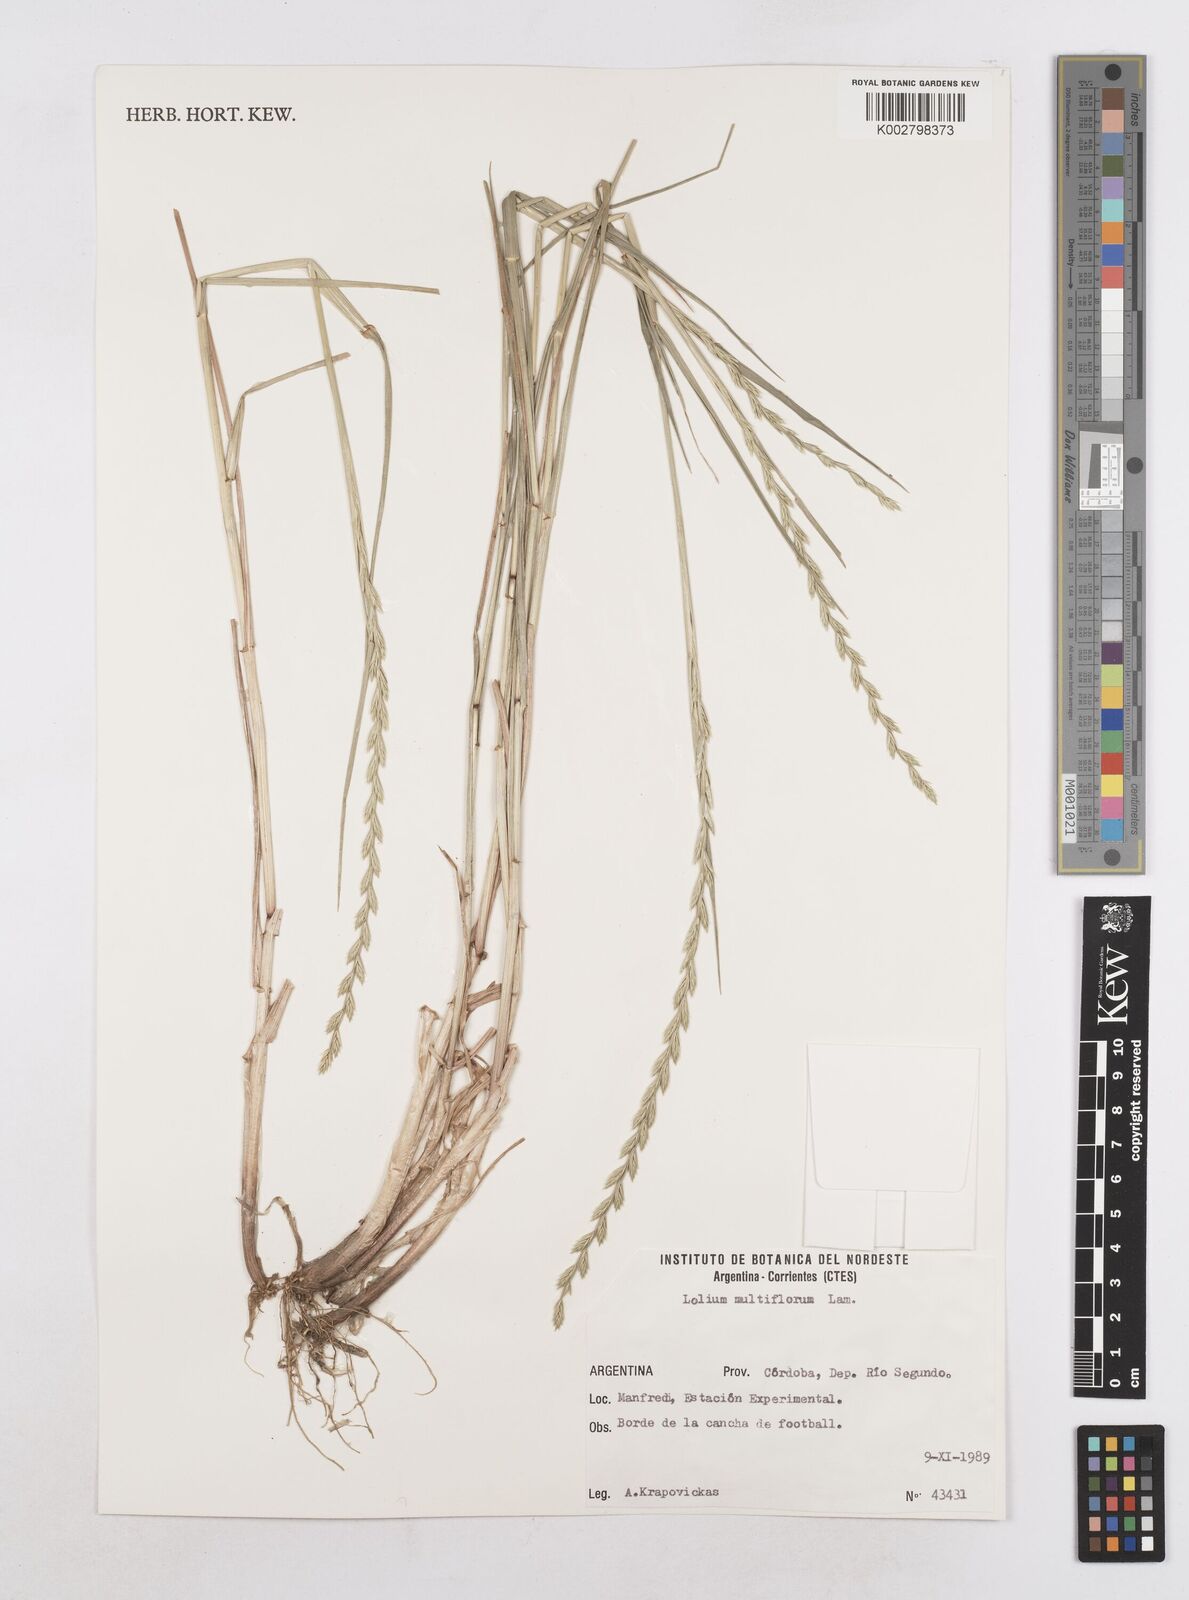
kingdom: Plantae
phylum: Tracheophyta
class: Liliopsida
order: Poales
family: Poaceae
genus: Lolium
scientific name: Lolium multiflorum
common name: Annual ryegrass
